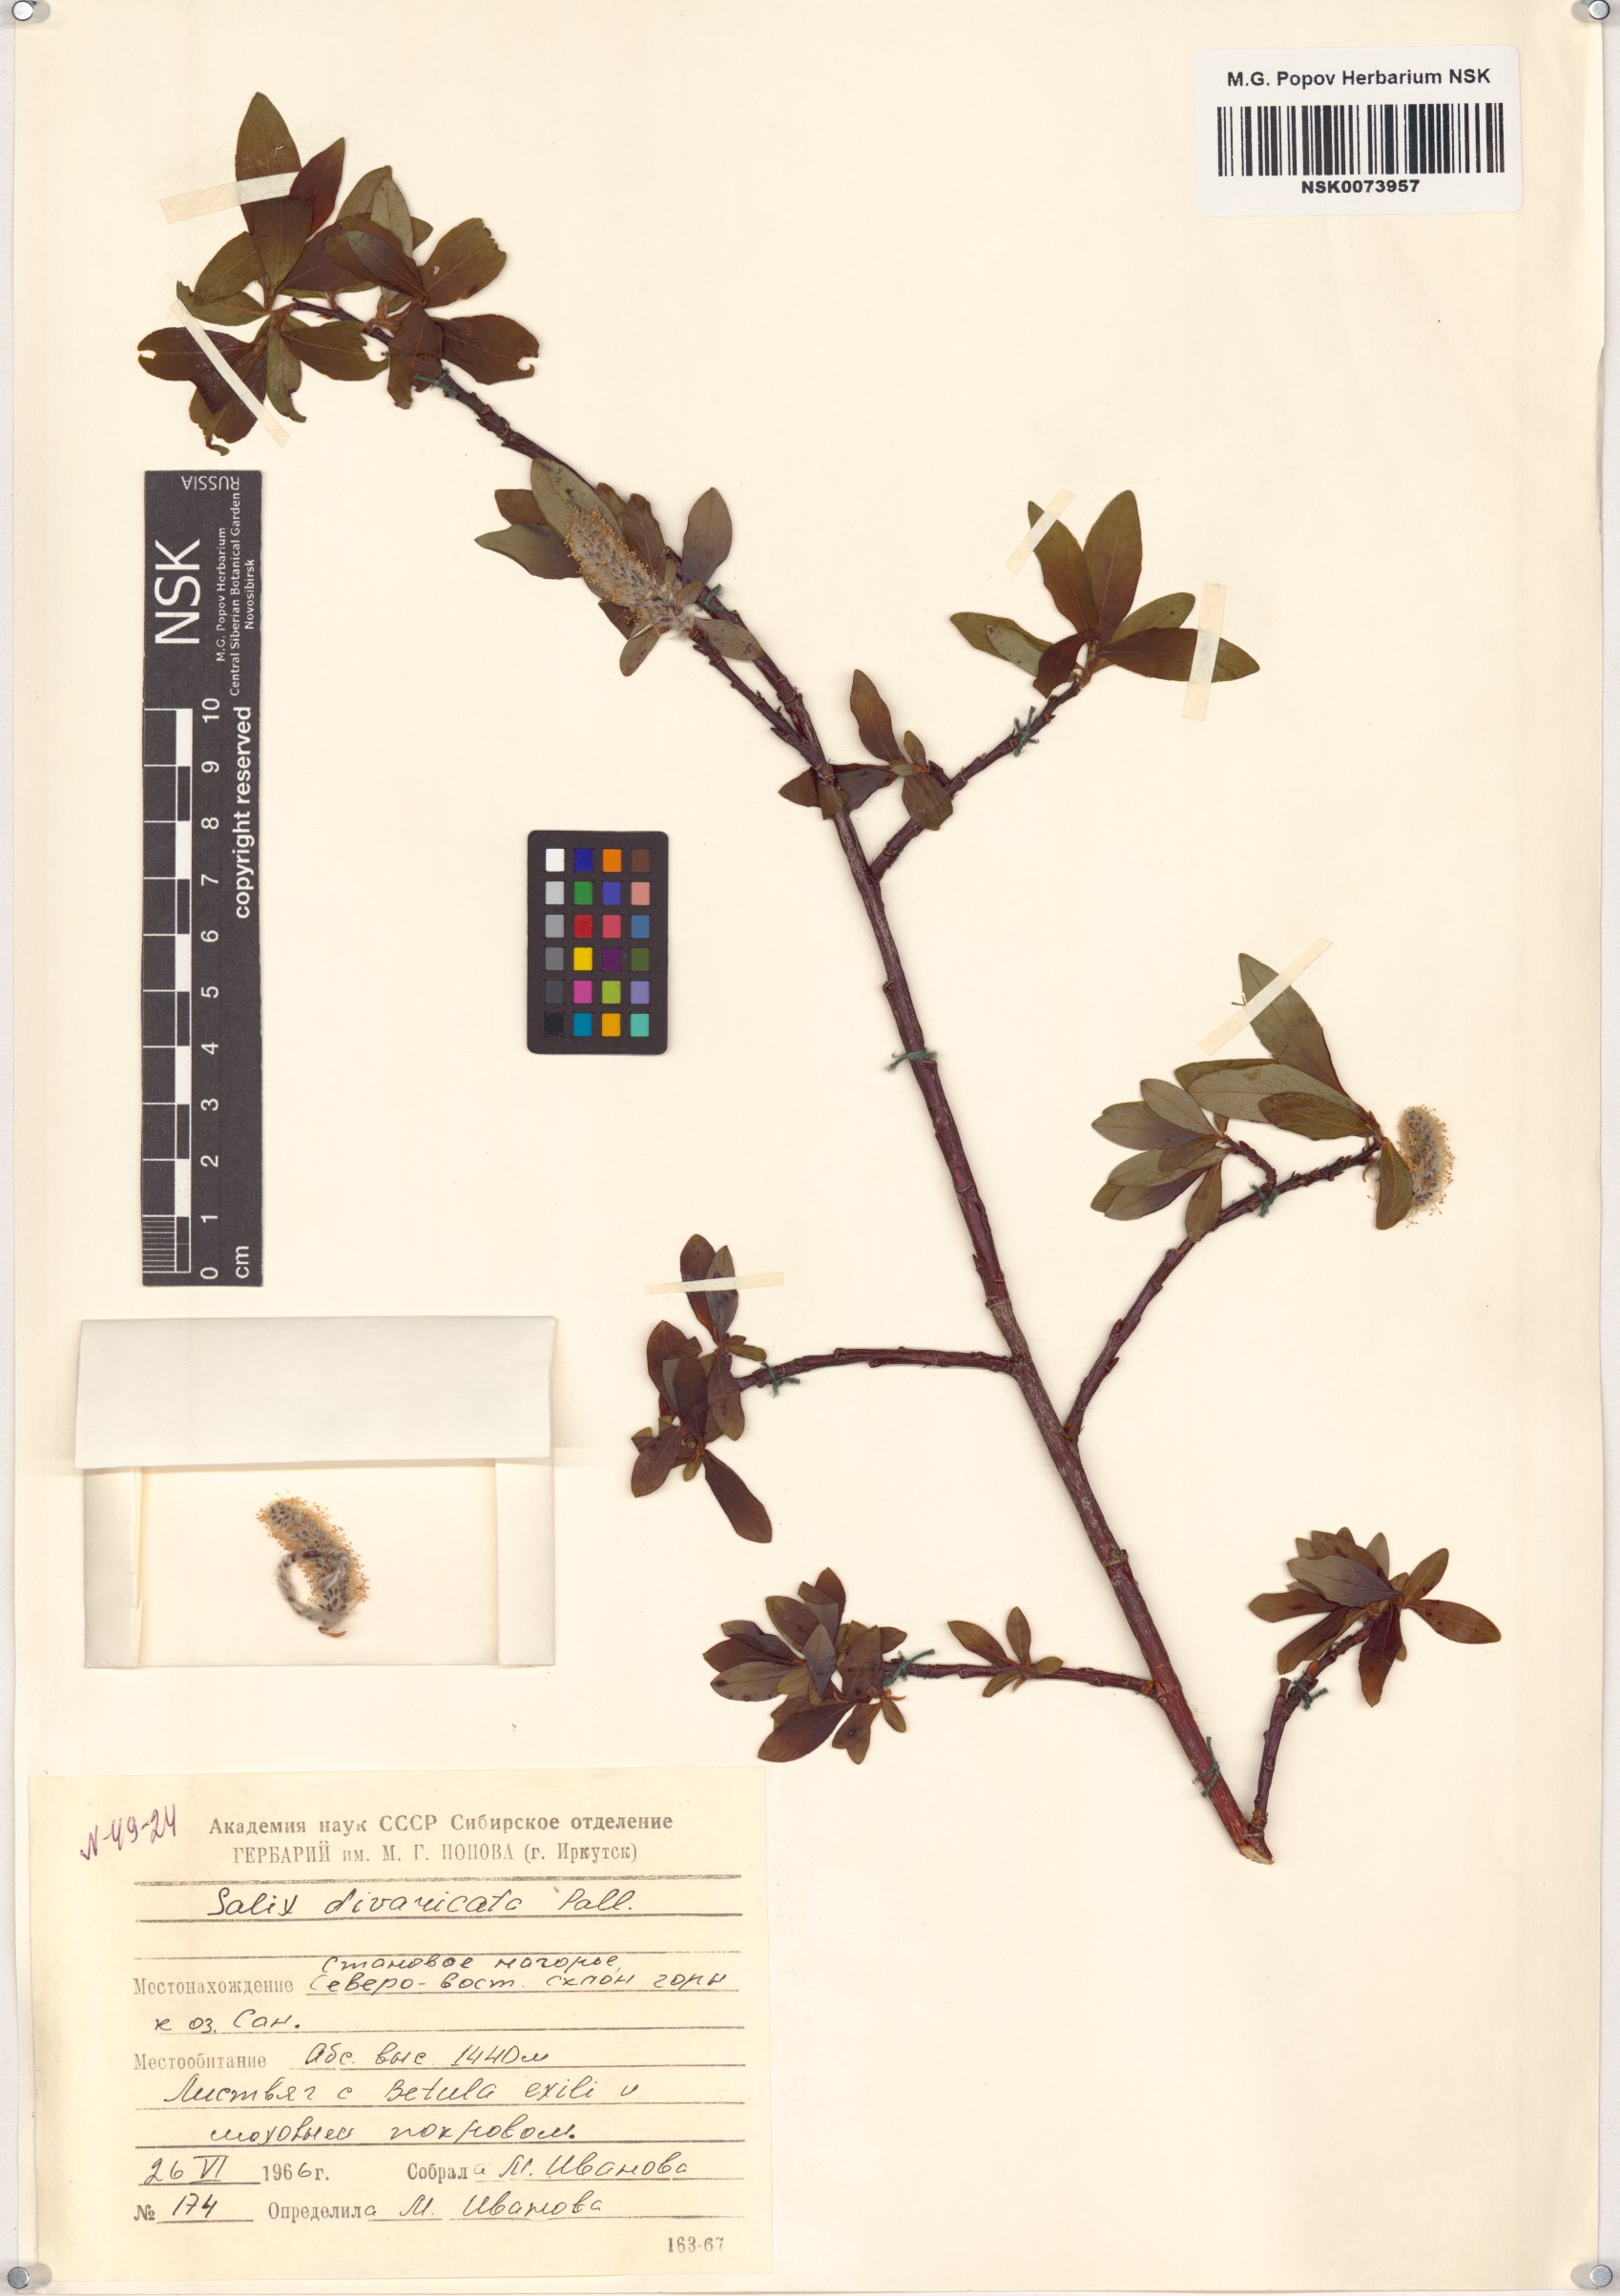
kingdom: Plantae
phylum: Tracheophyta
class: Magnoliopsida
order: Malpighiales
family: Salicaceae
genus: Salix
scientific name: Salix divaricata
